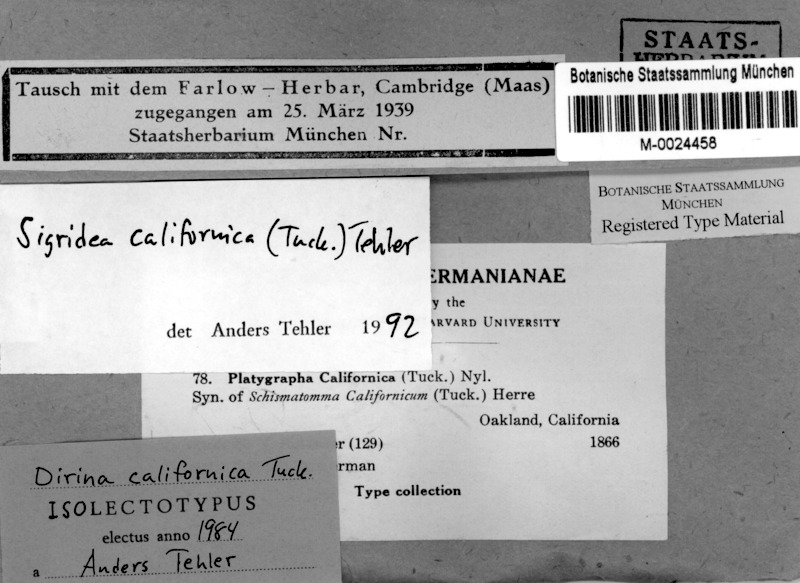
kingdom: Fungi
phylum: Ascomycota
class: Arthoniomycetes
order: Arthoniales
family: Roccellaceae
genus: Sigridea
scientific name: Sigridea californica
